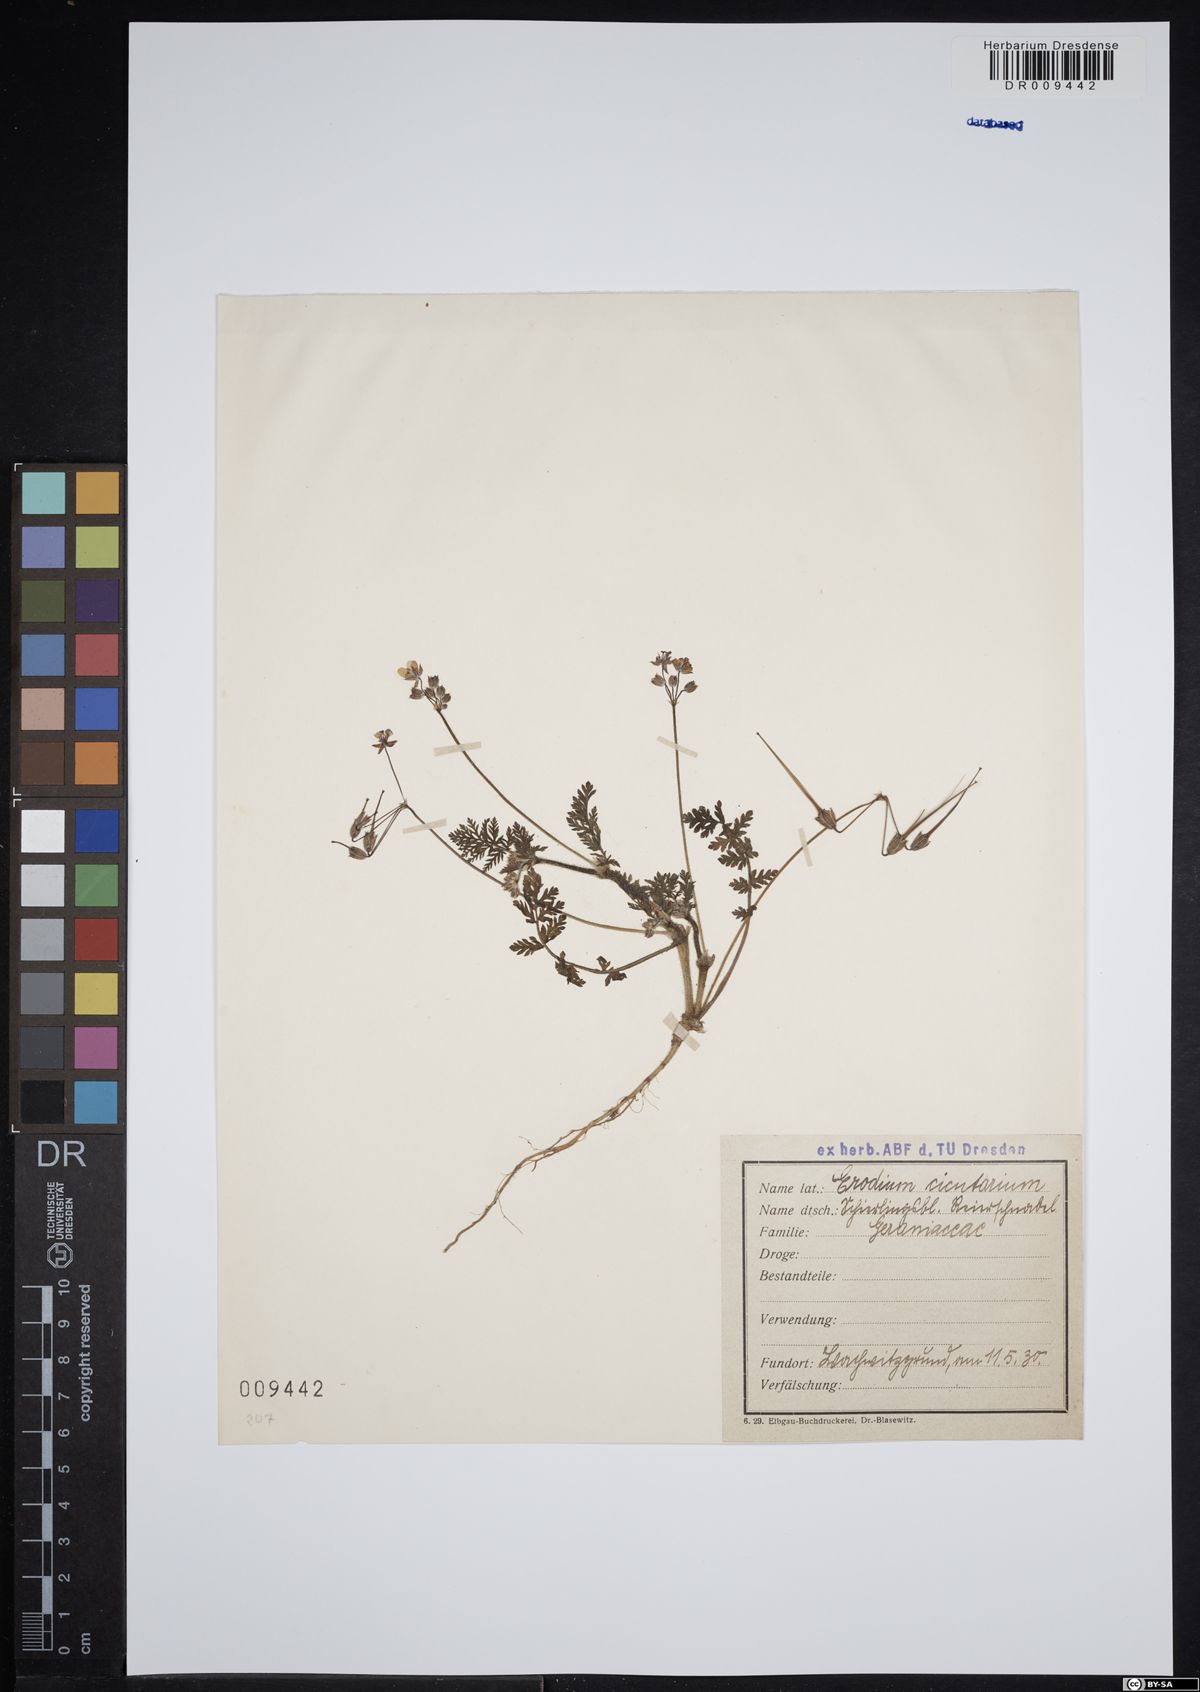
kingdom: Plantae
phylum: Tracheophyta
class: Magnoliopsida
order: Geraniales
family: Geraniaceae
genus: Erodium
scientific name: Erodium cicutarium
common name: Common stork's-bill
